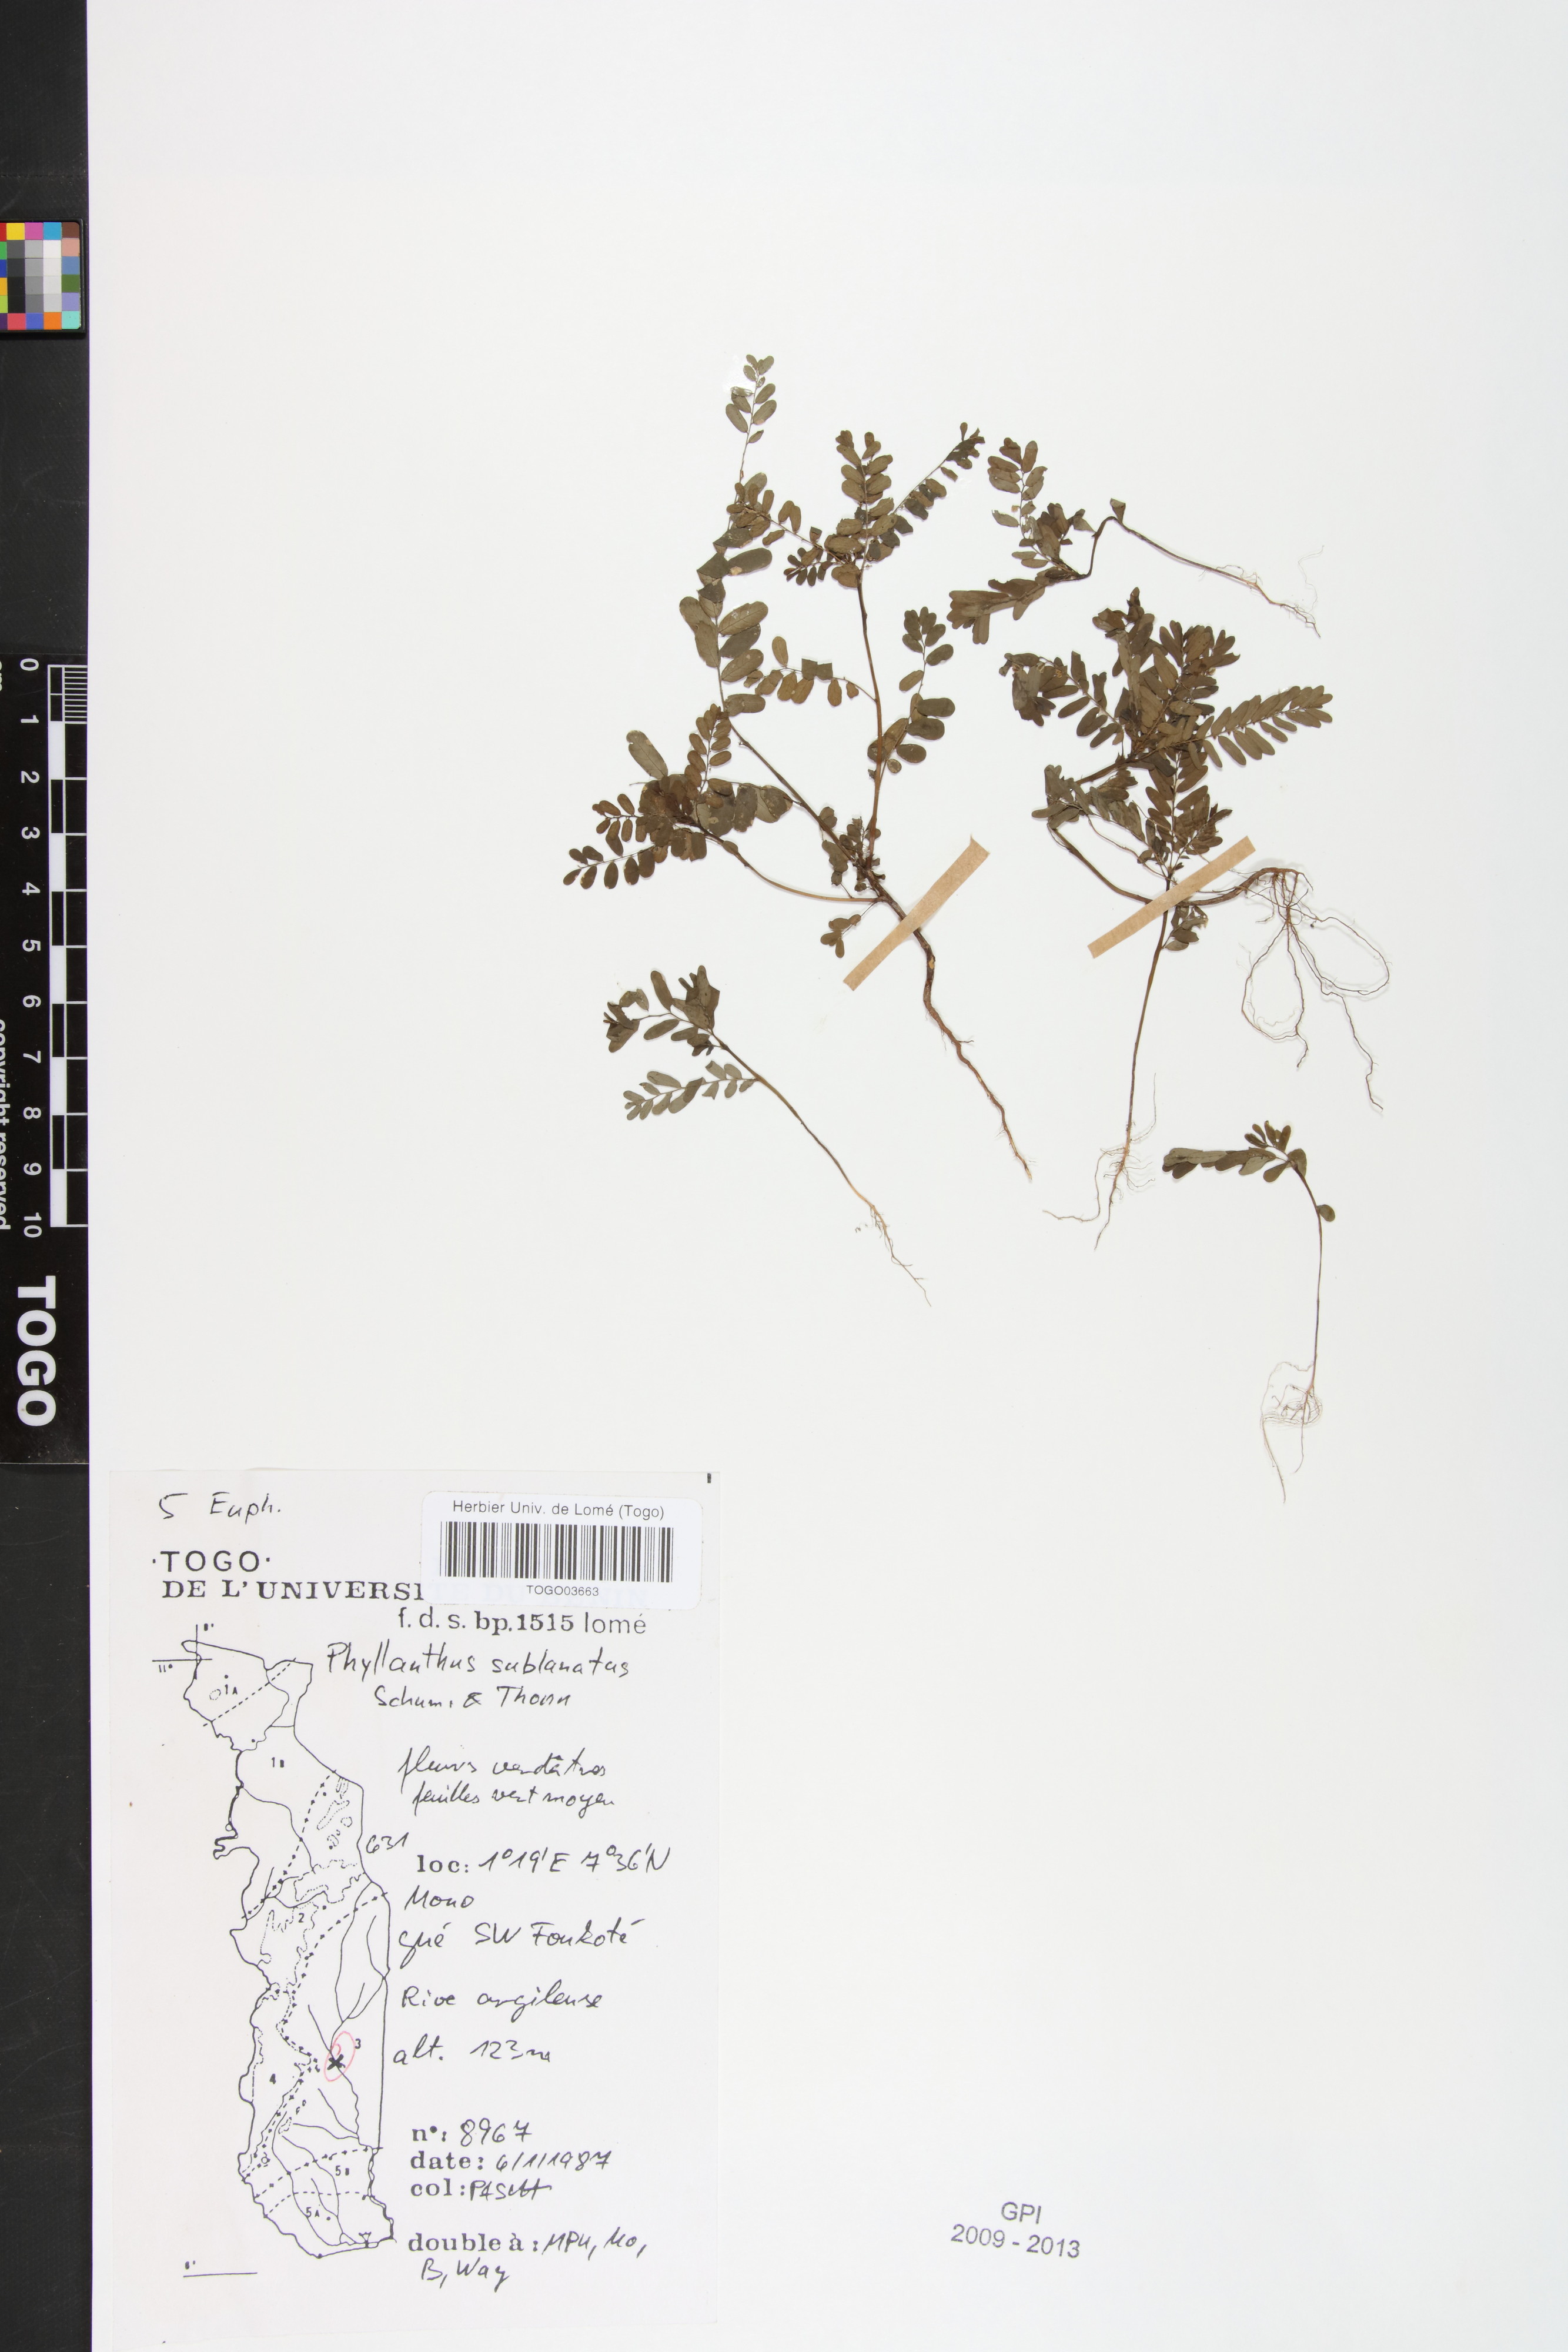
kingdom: Plantae
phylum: Tracheophyta
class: Magnoliopsida
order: Malpighiales
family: Phyllanthaceae
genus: Phyllanthus
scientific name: Phyllanthus sublanatus
